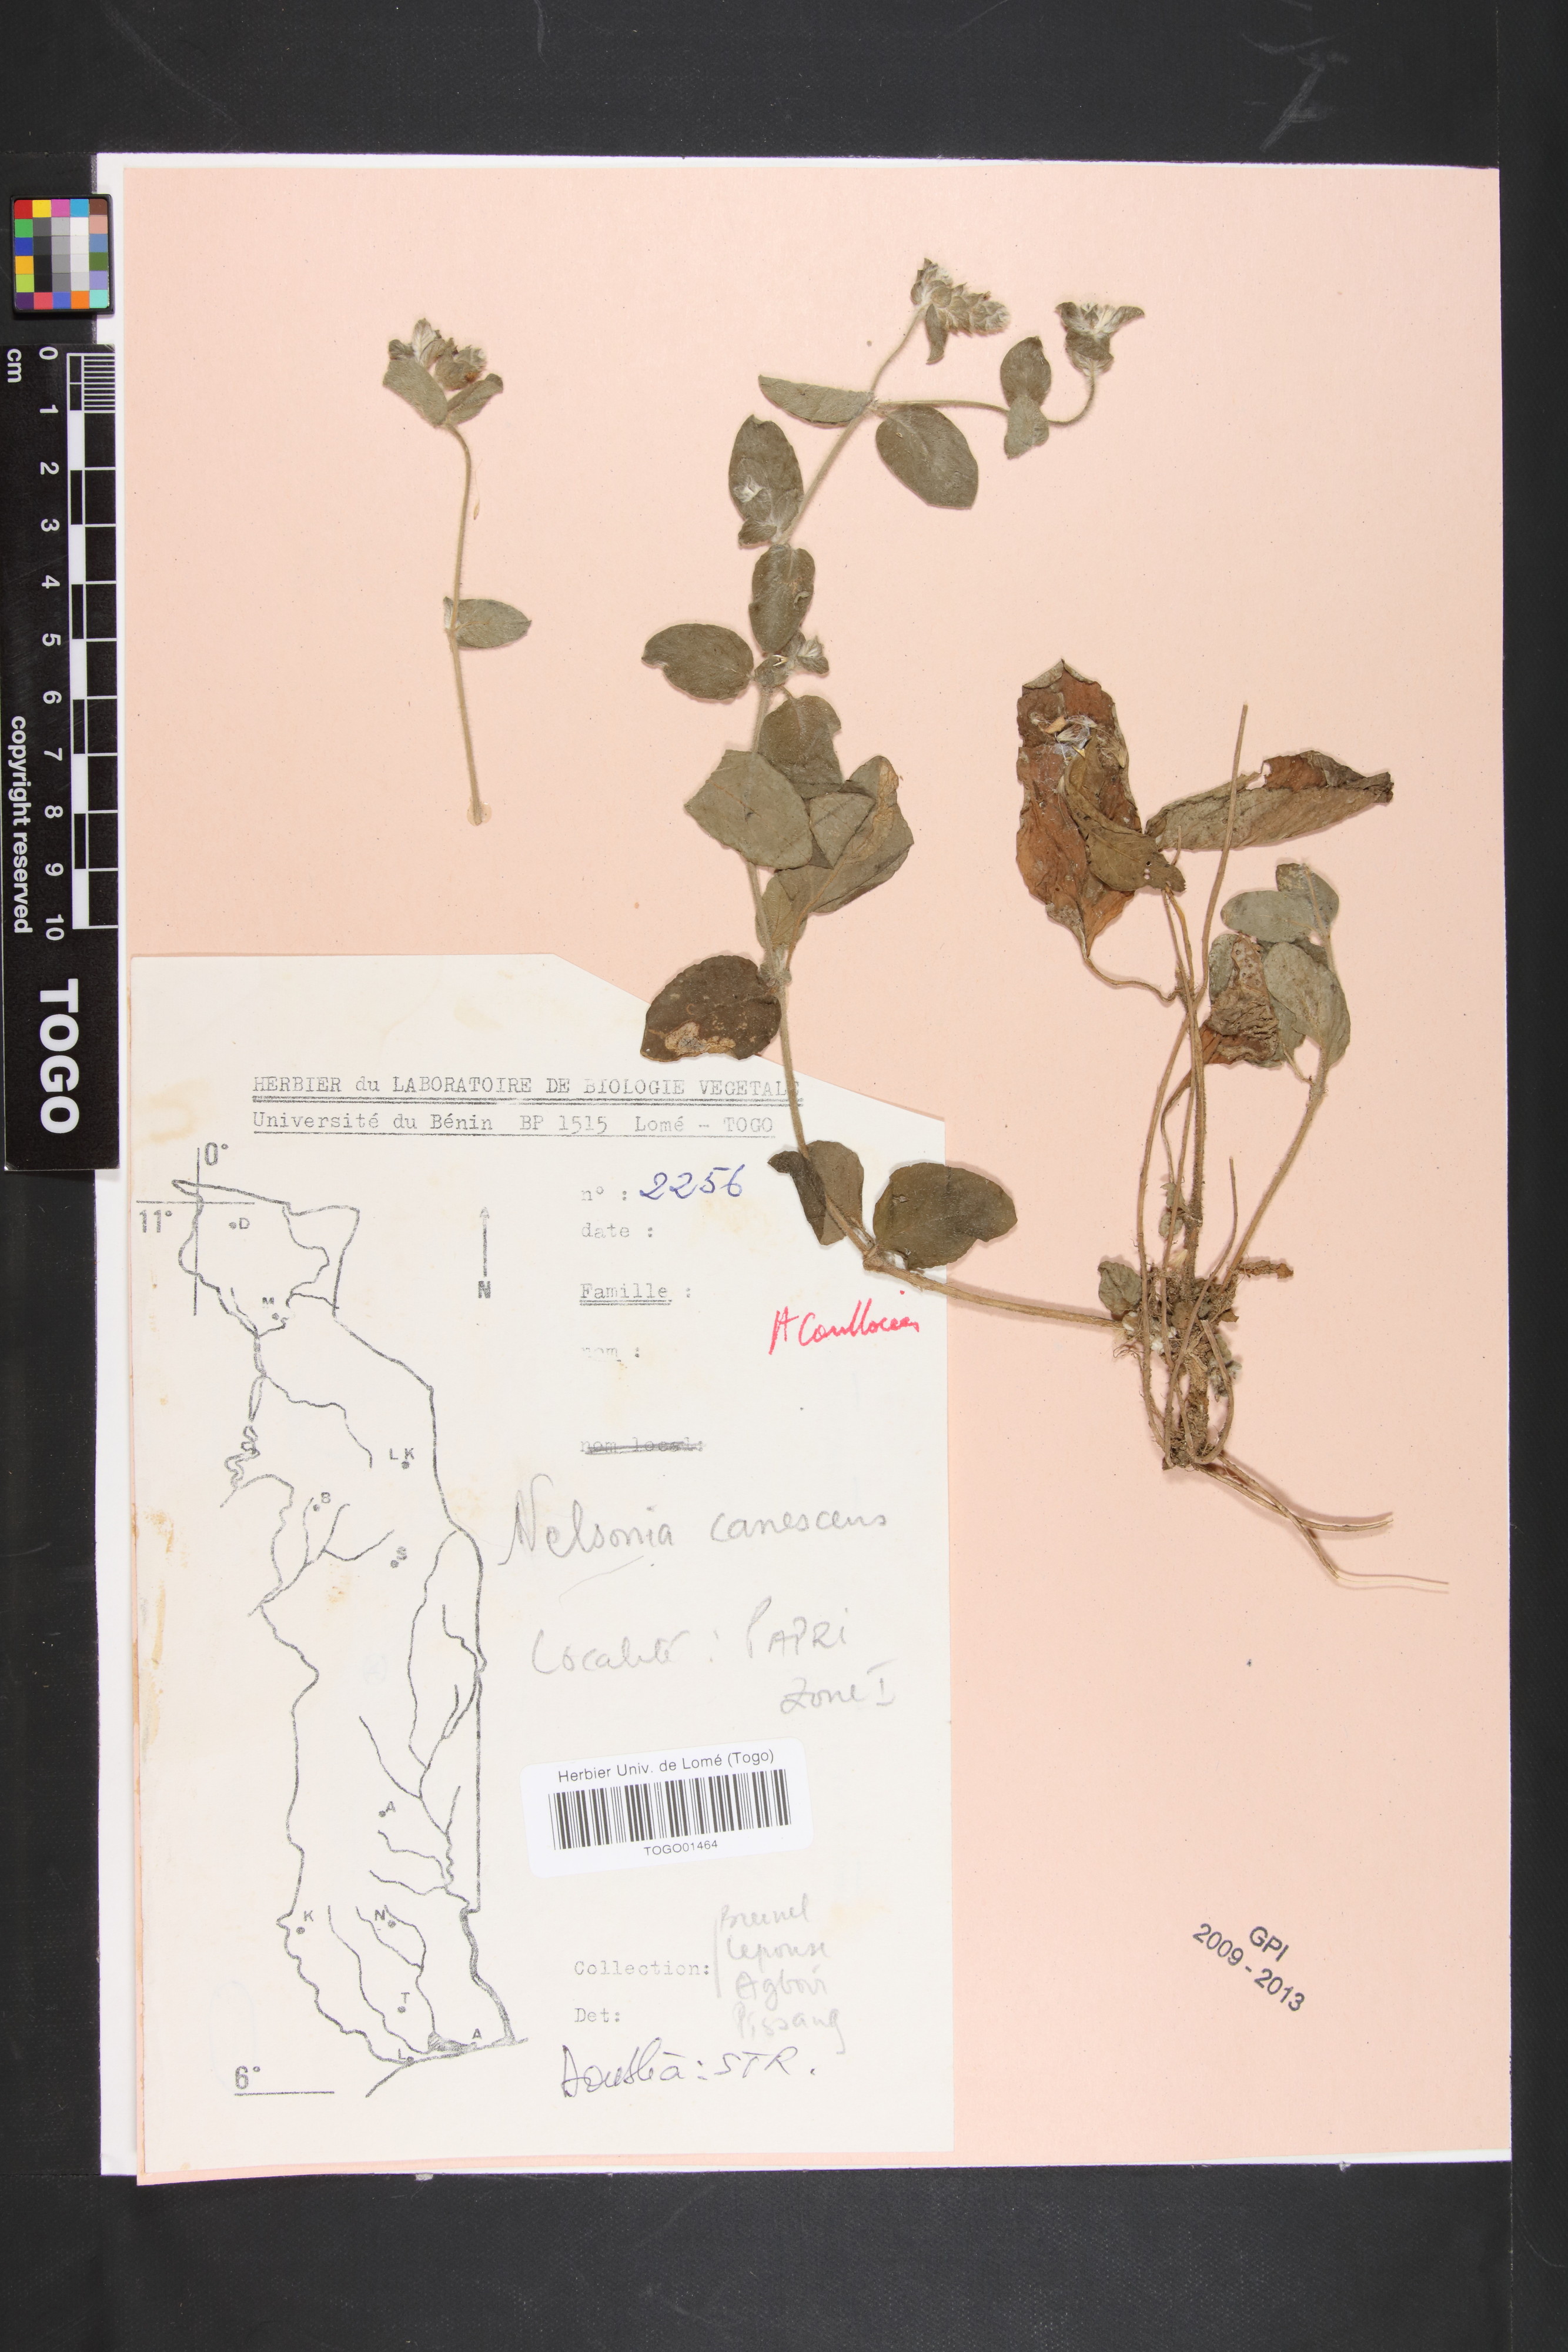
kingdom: Plantae
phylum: Tracheophyta
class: Magnoliopsida
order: Lamiales
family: Acanthaceae
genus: Nelsonia
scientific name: Nelsonia canescens
